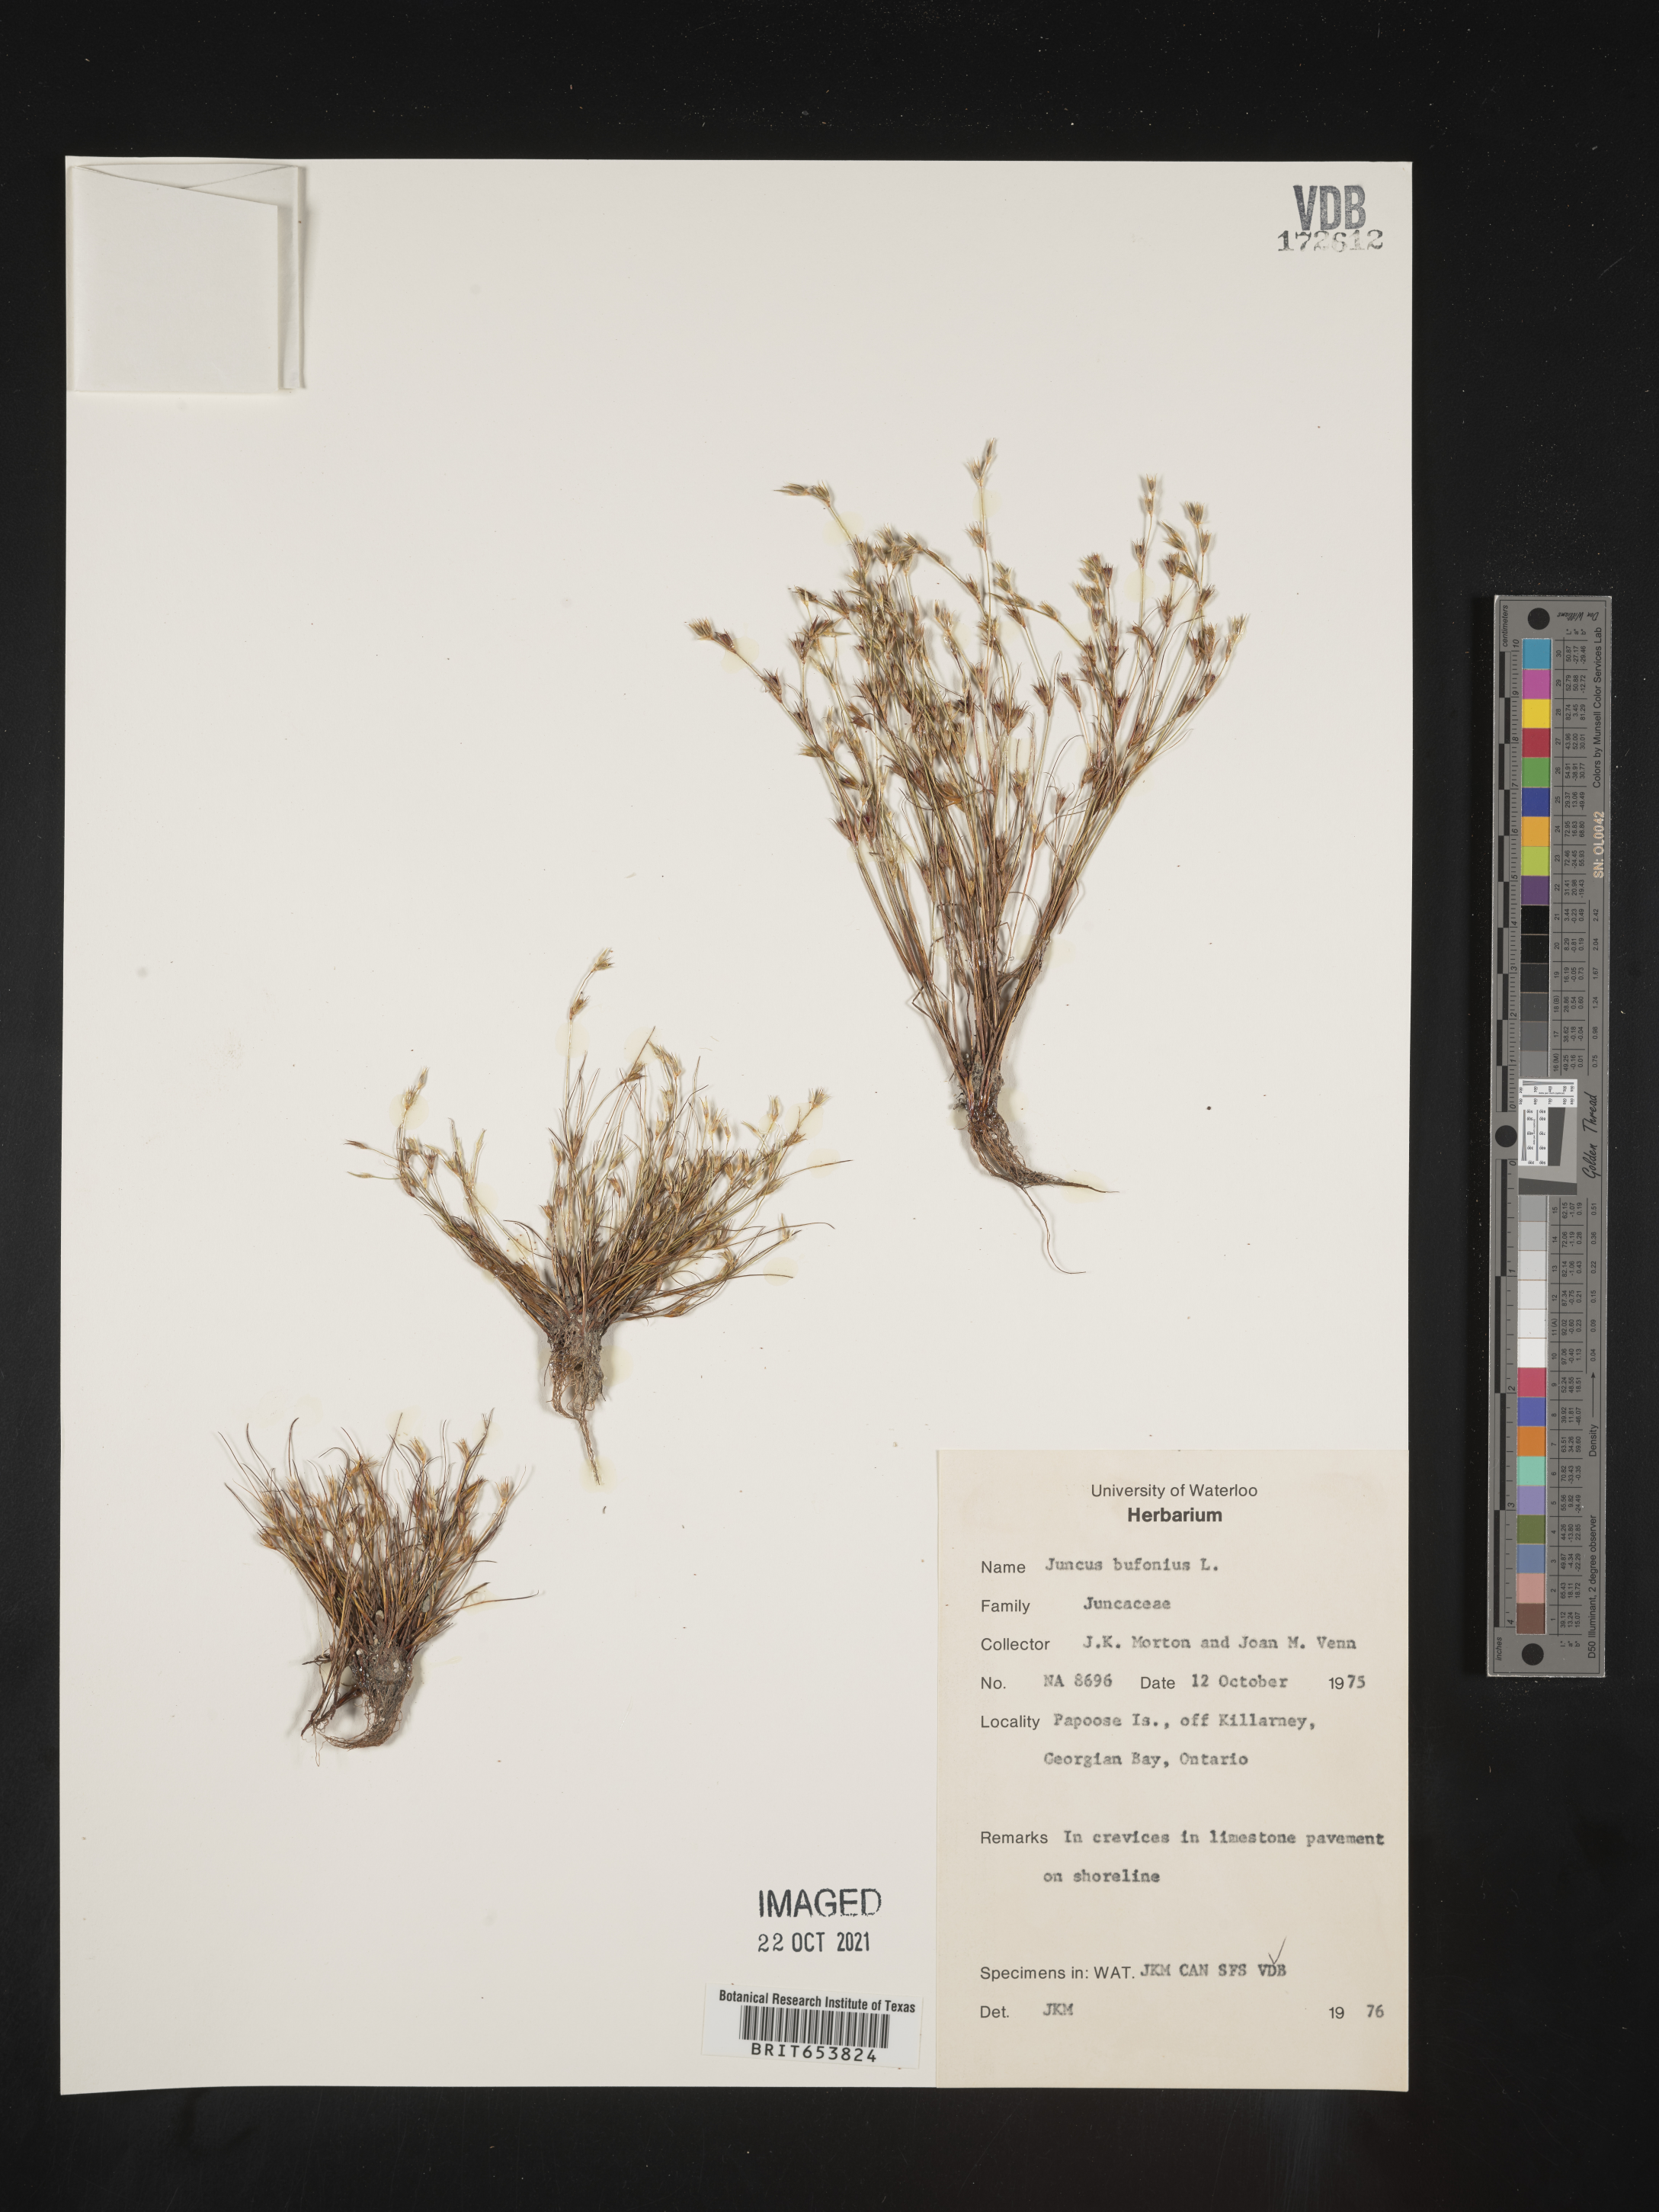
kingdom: Plantae
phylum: Tracheophyta
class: Liliopsida
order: Poales
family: Juncaceae
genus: Juncus
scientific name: Juncus bufonius
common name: Toad rush
